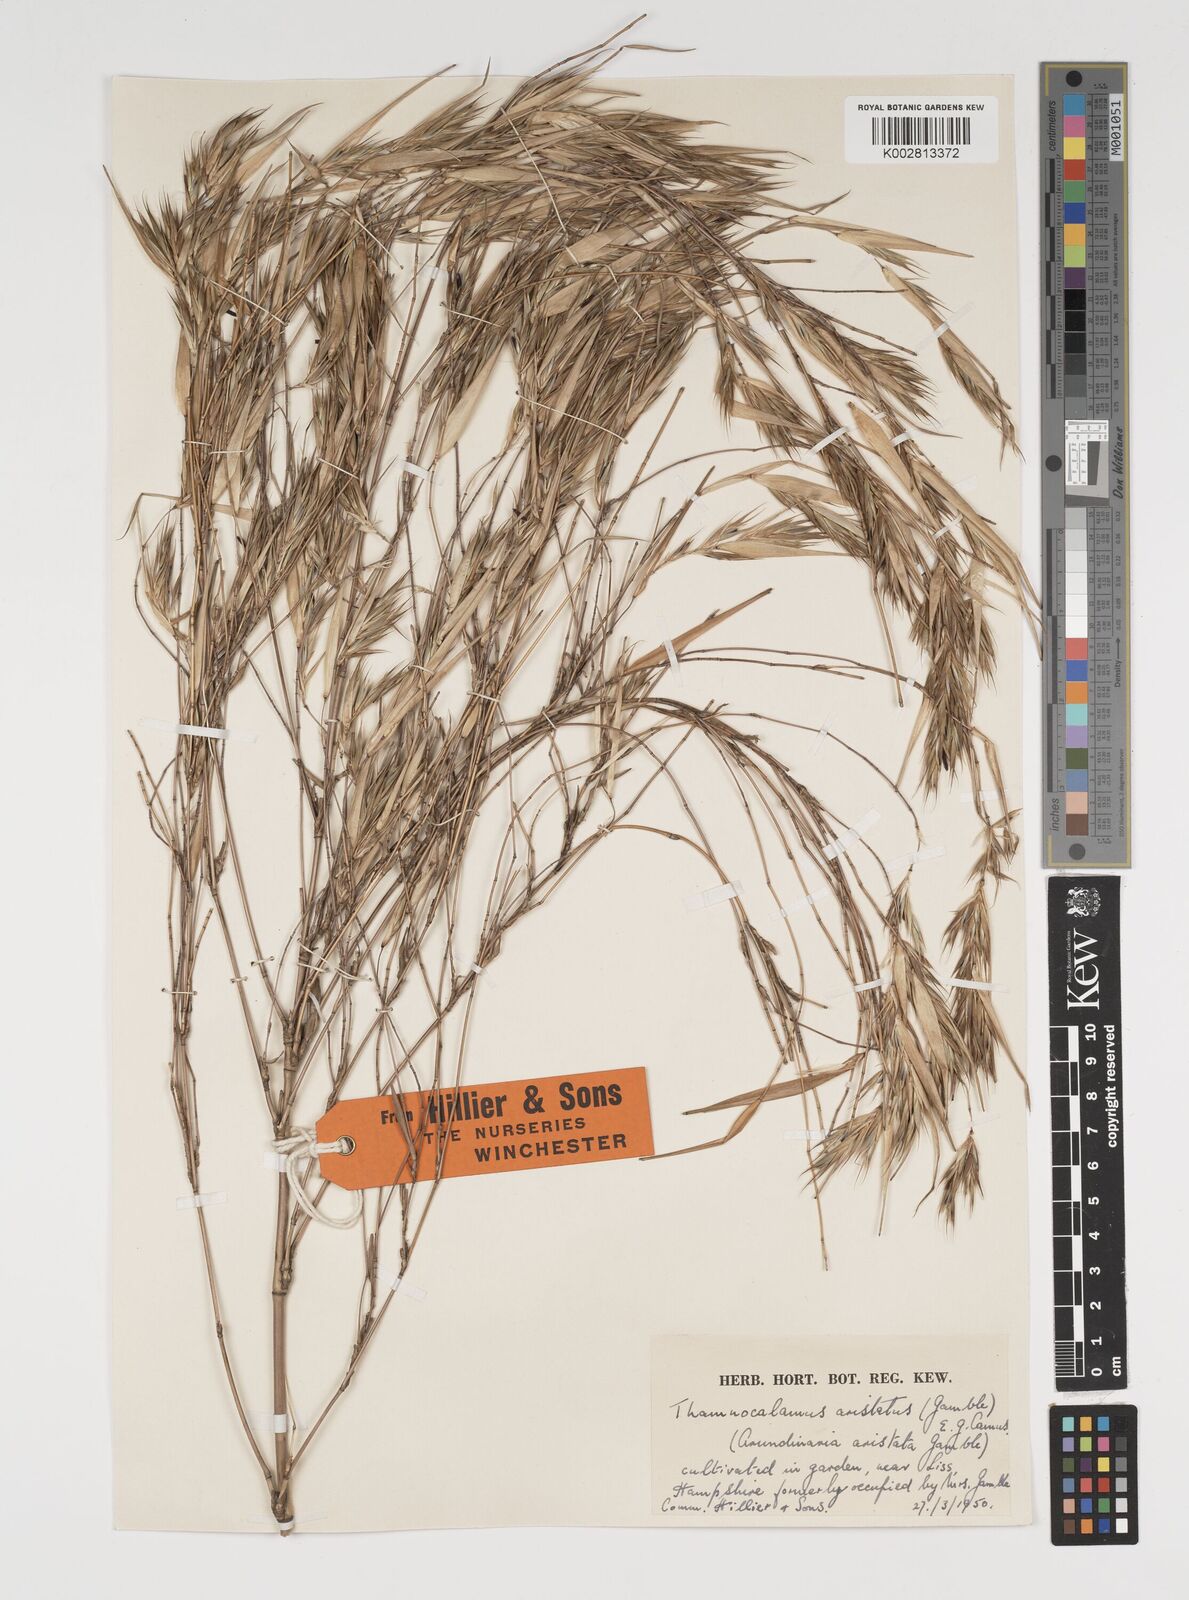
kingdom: Plantae
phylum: Tracheophyta
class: Liliopsida
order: Poales
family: Poaceae
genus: Thamnocalamus
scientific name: Thamnocalamus spathiflorus
